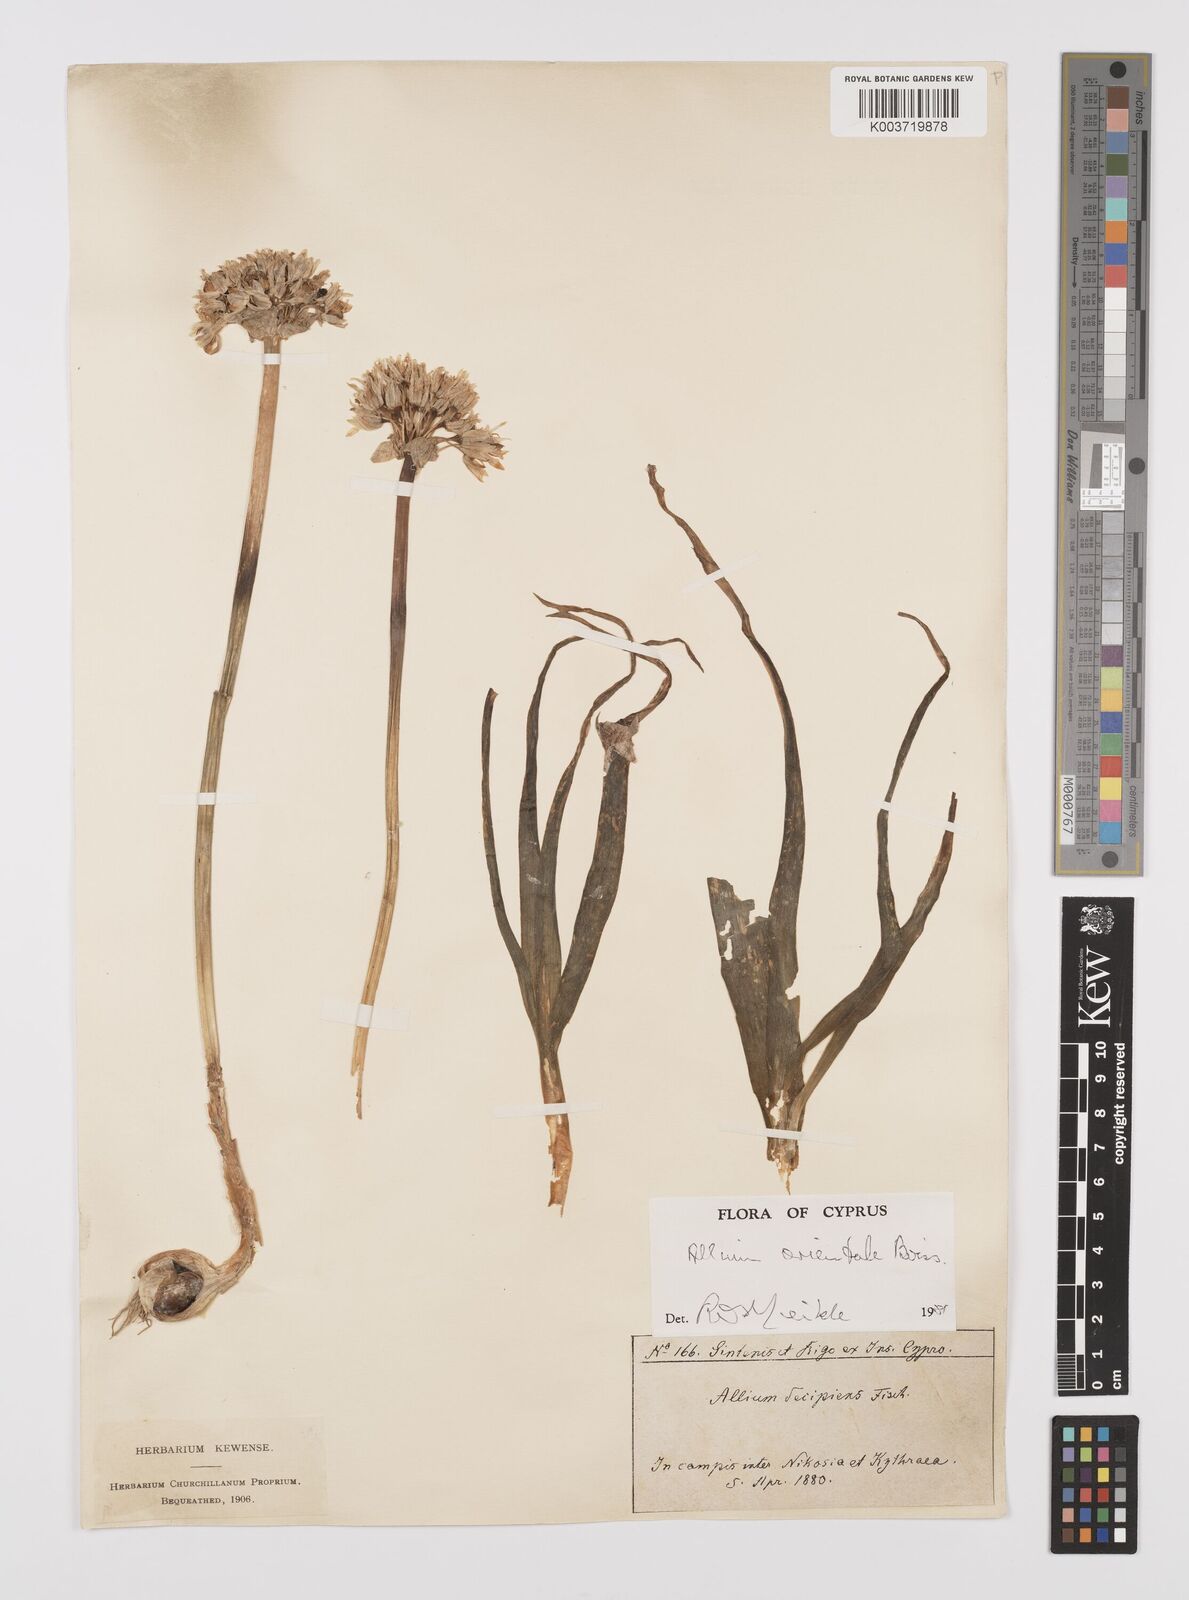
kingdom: Plantae
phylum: Tracheophyta
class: Liliopsida
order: Asparagales
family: Amaryllidaceae
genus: Allium
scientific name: Allium orientale
